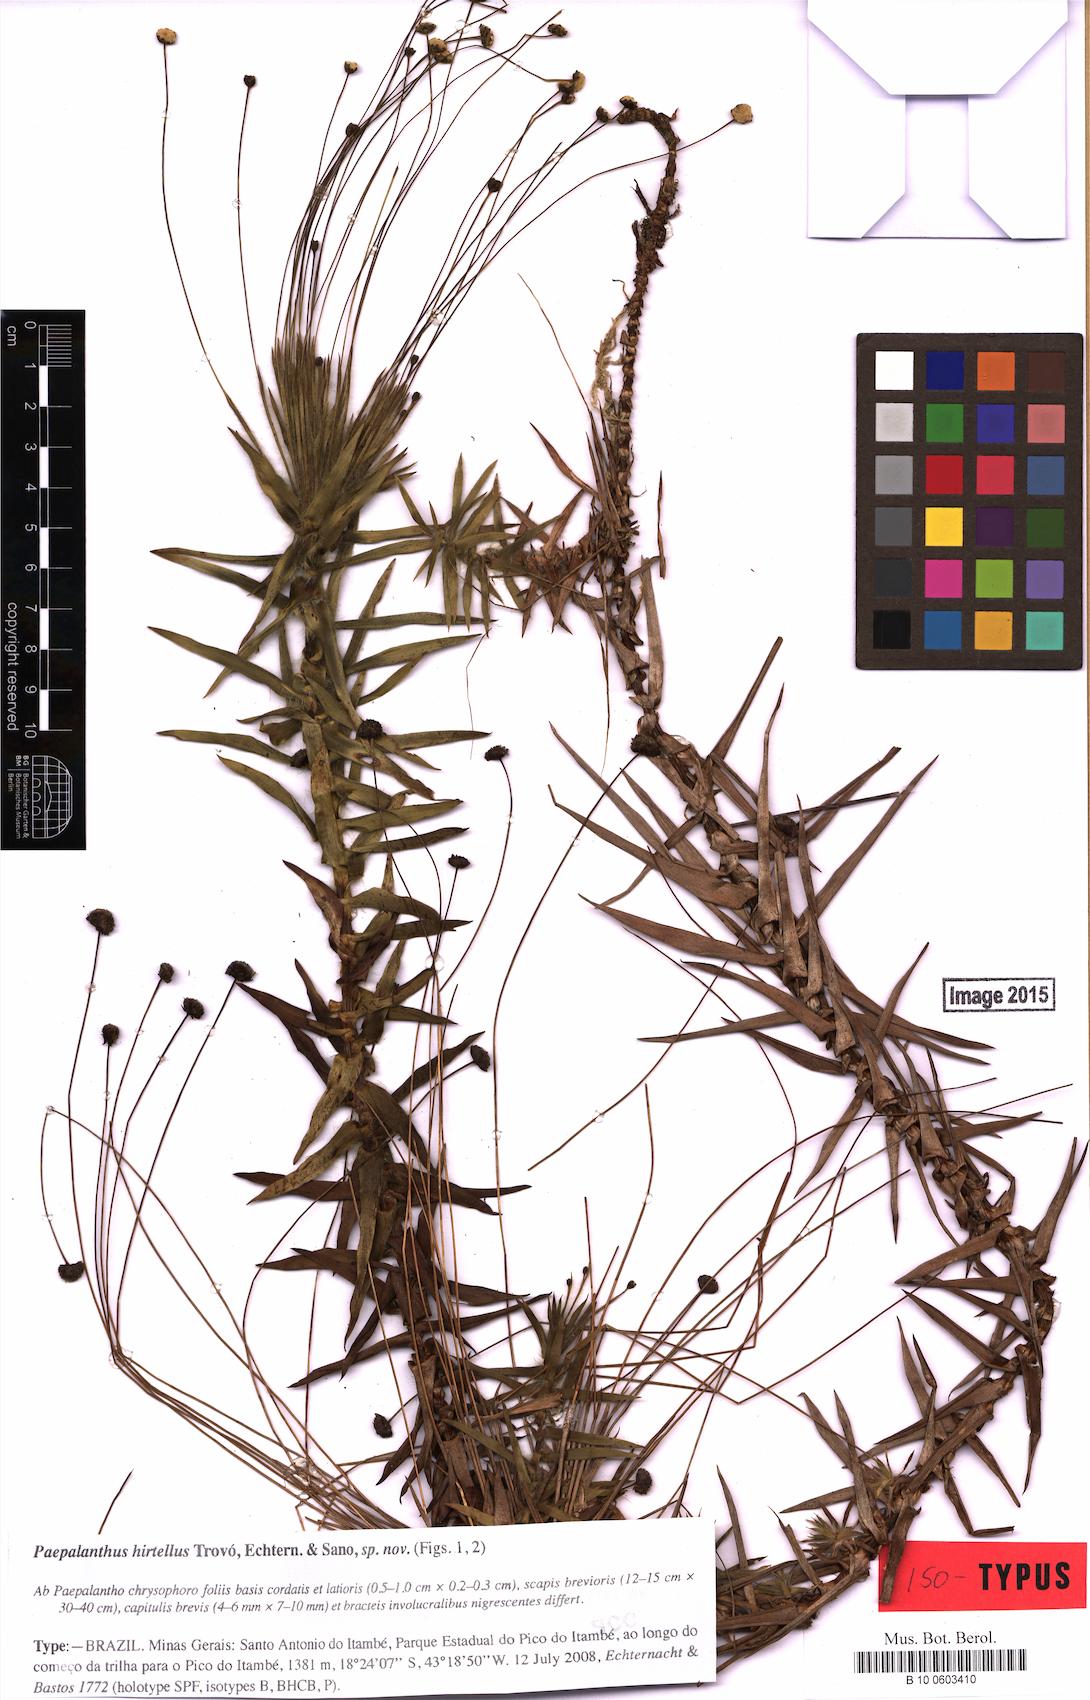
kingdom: Plantae
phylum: Tracheophyta
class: Liliopsida
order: Poales
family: Eriocaulaceae
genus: Paepalanthus
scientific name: Paepalanthus hirtellus
